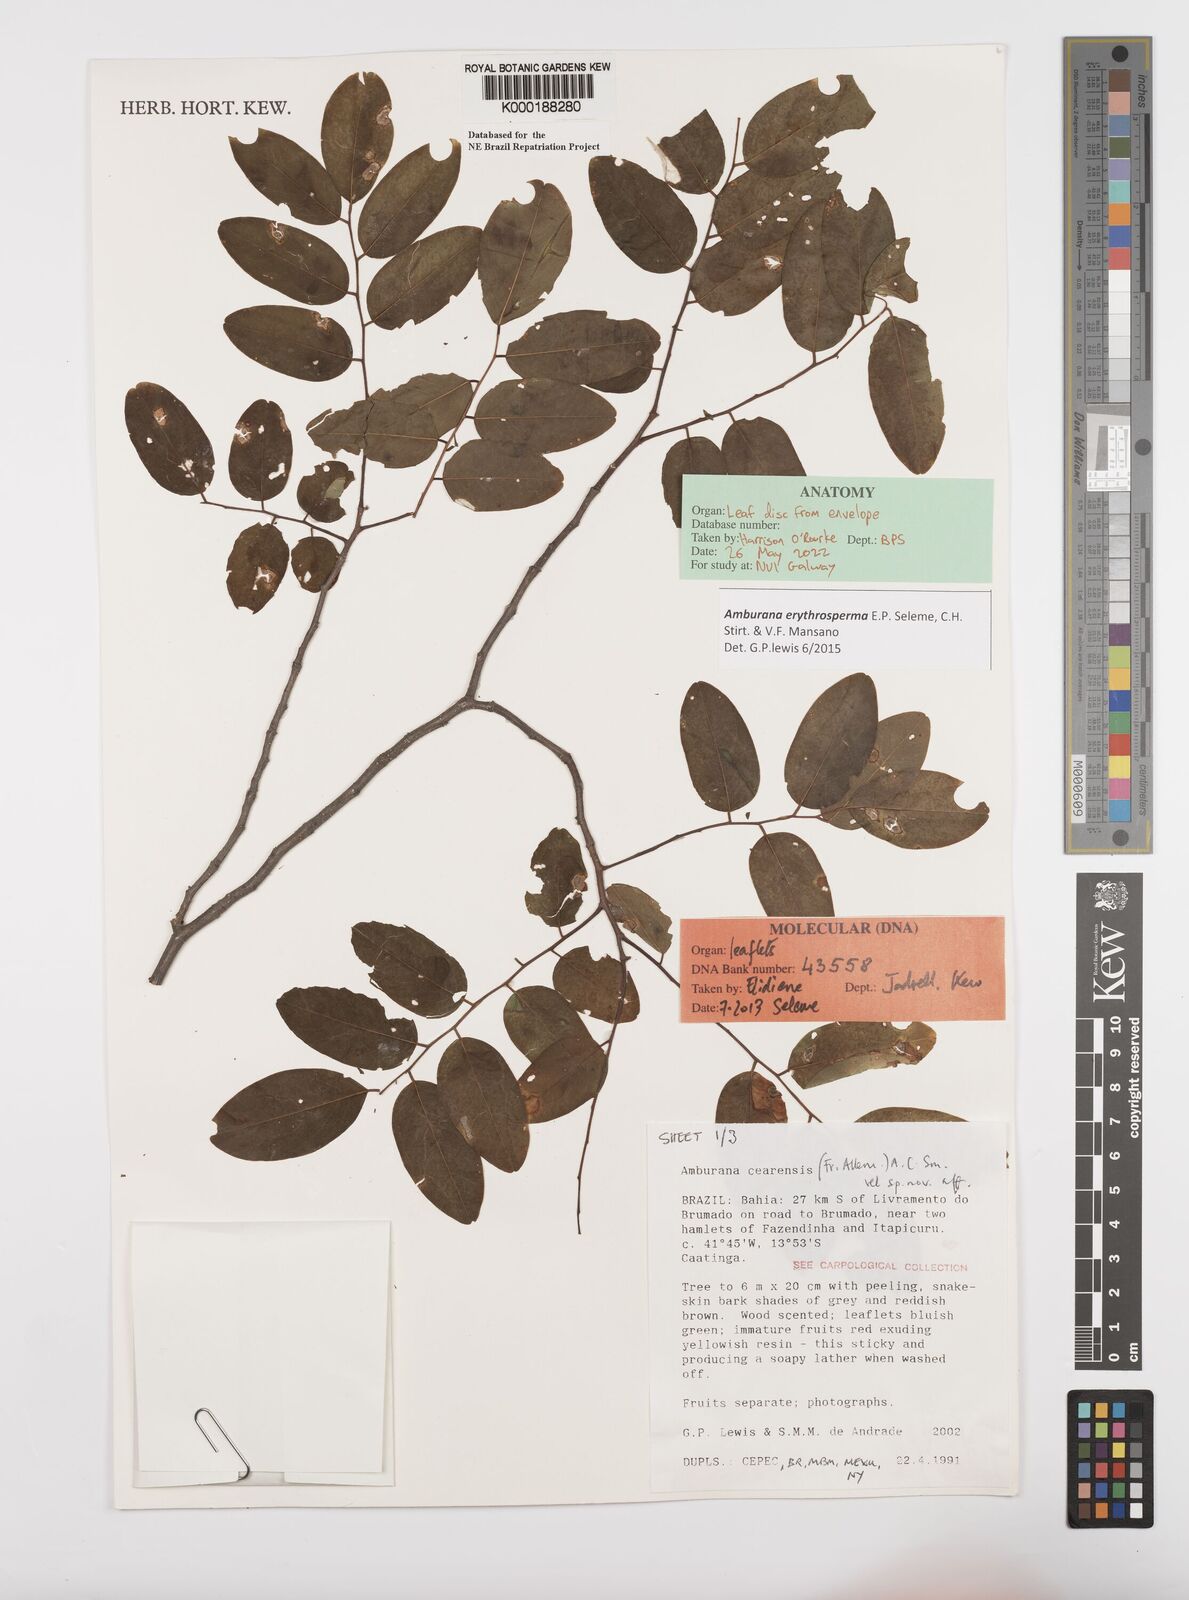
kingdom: Plantae
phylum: Tracheophyta
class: Magnoliopsida
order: Fabales
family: Fabaceae
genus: Amburana
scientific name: Amburana
